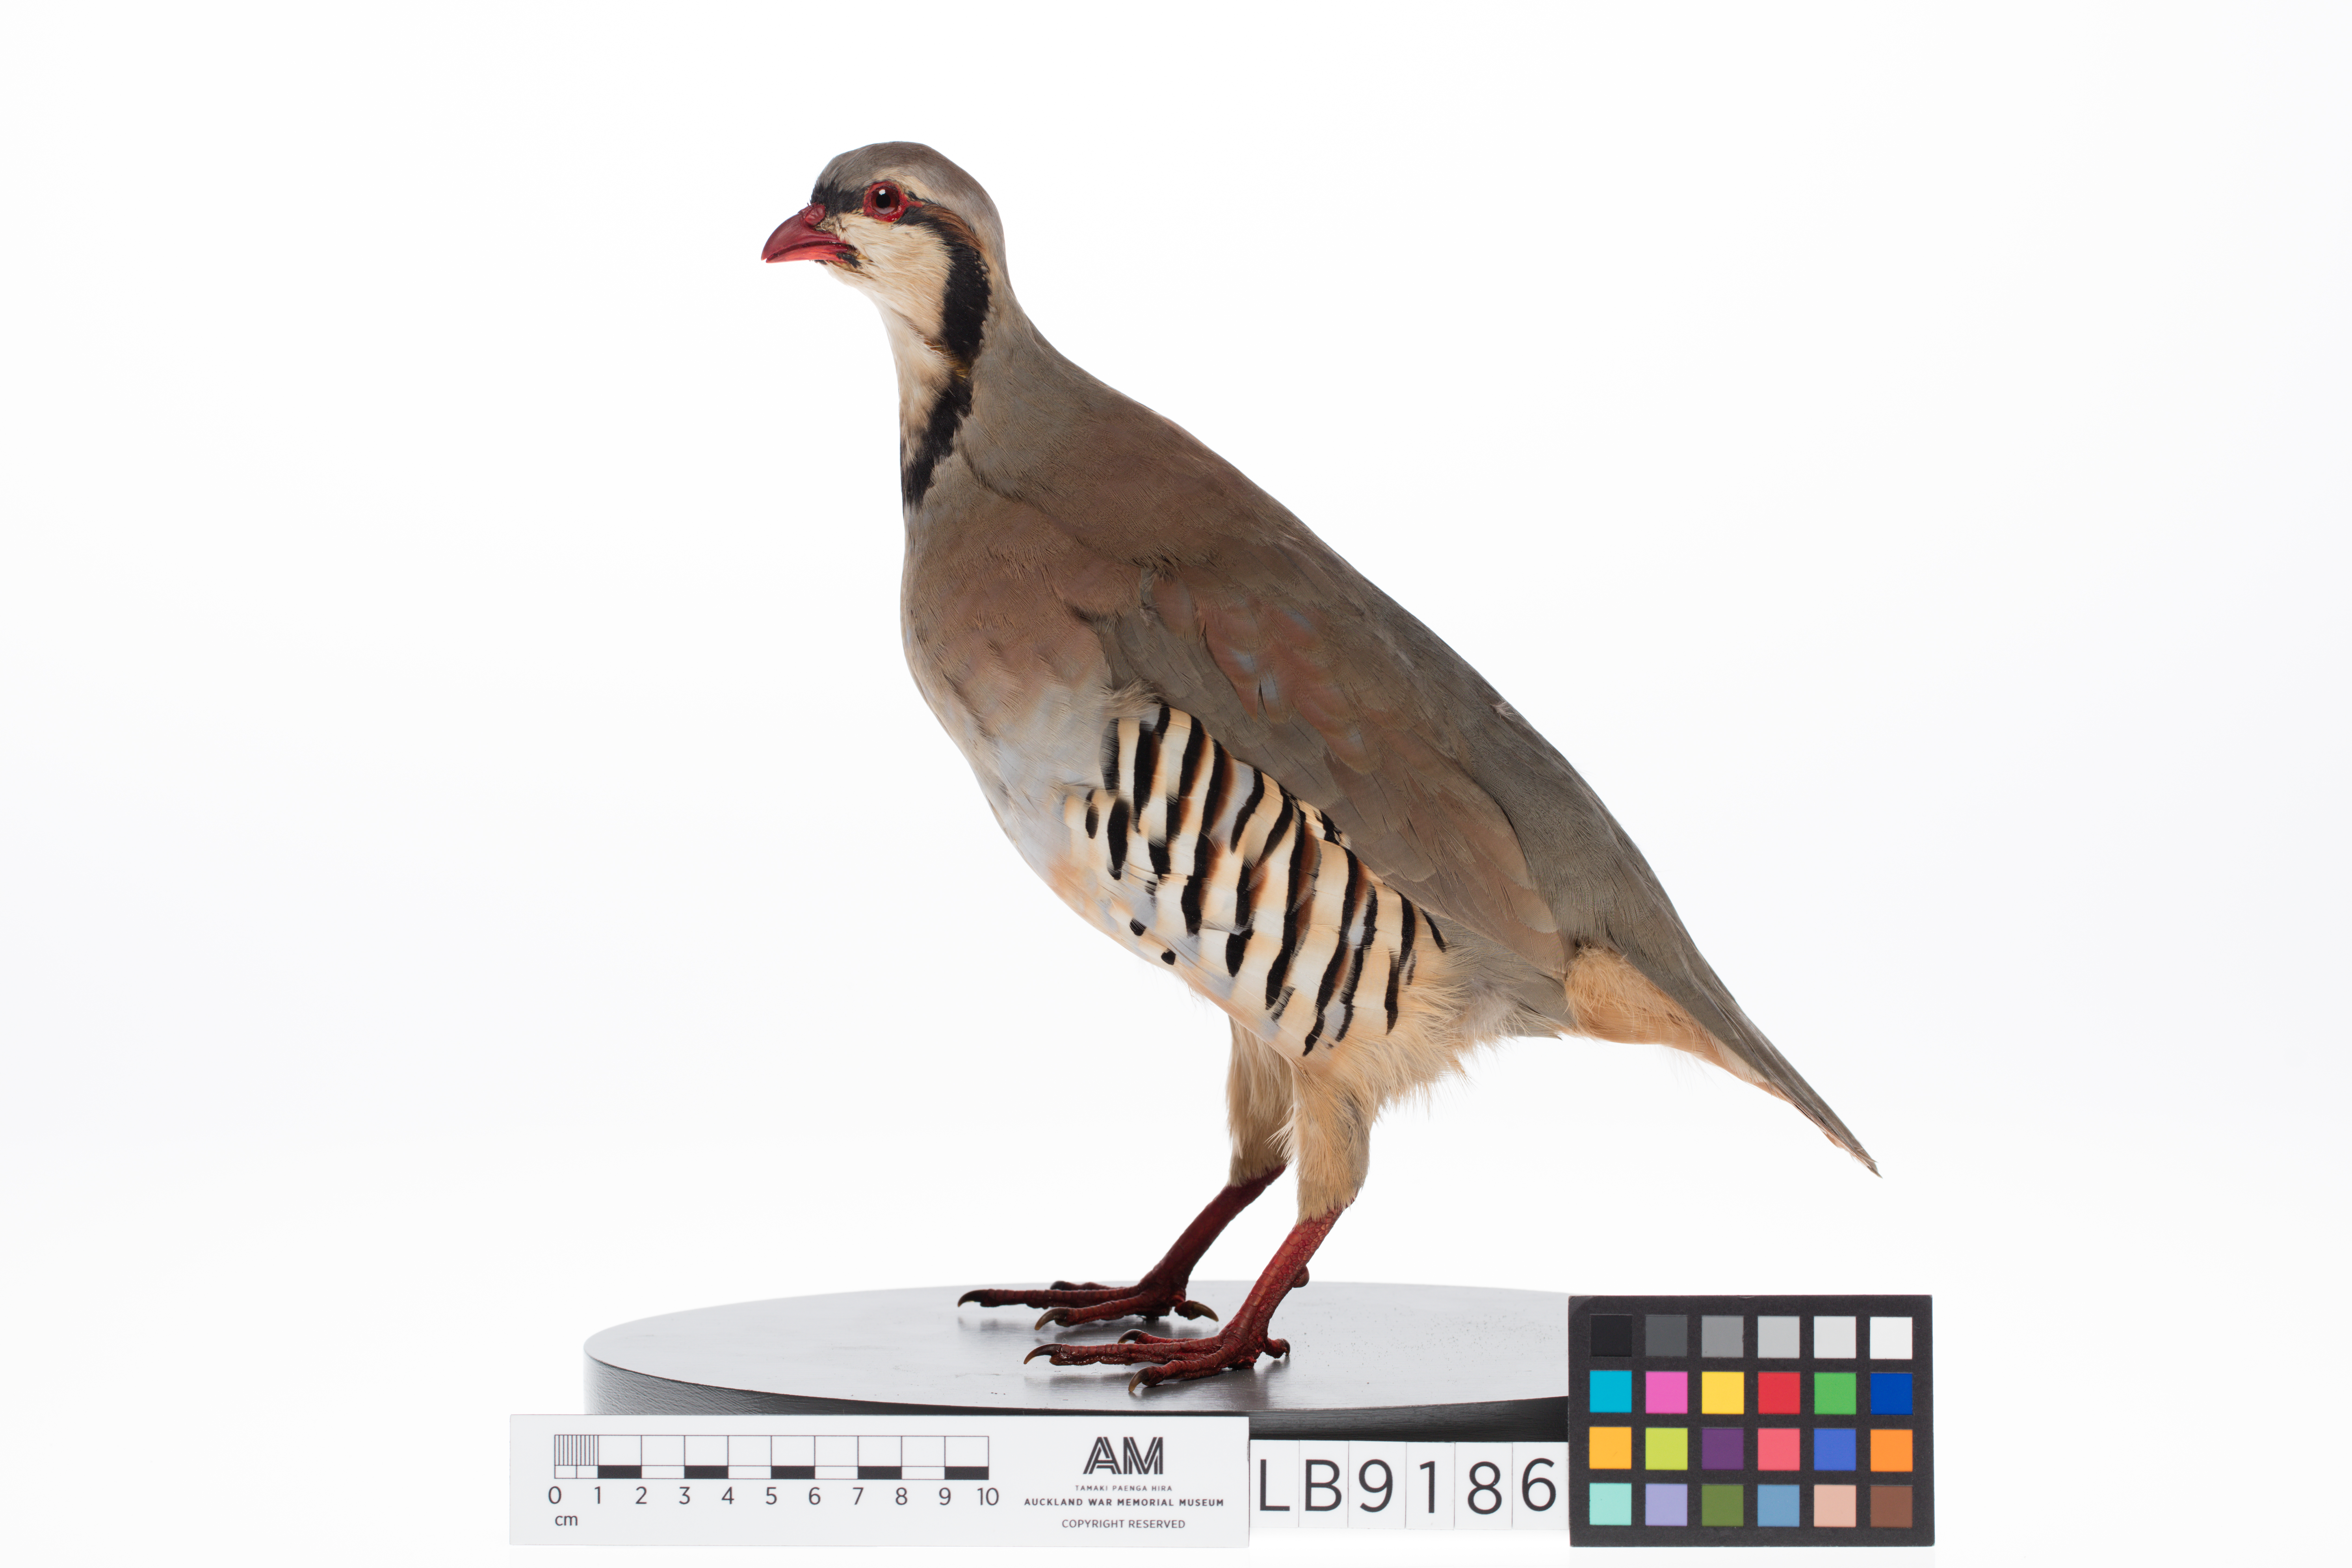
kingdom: Animalia
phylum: Chordata
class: Aves
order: Galliformes
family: Phasianidae
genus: Alectoris
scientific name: Alectoris chukar
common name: Chukar
